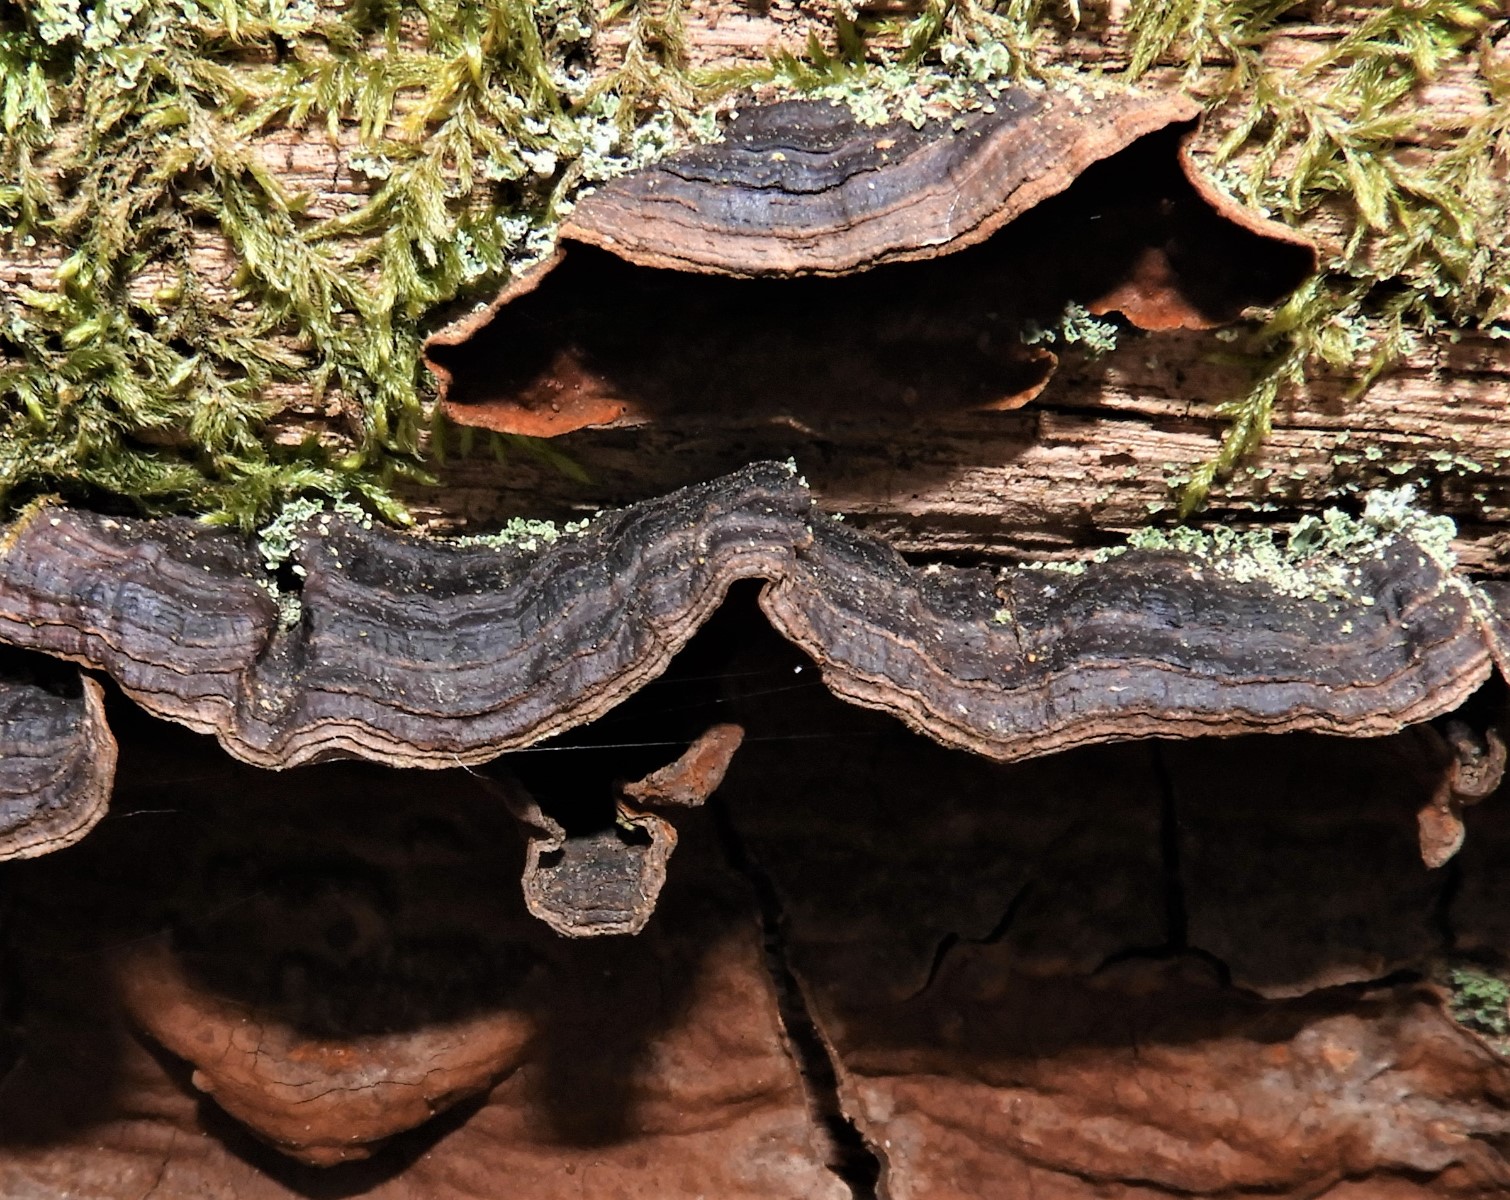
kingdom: Fungi
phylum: Basidiomycota
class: Agaricomycetes
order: Hymenochaetales
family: Hymenochaetaceae
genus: Hymenochaete
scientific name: Hymenochaete rubiginosa
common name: stiv ruslædersvamp
